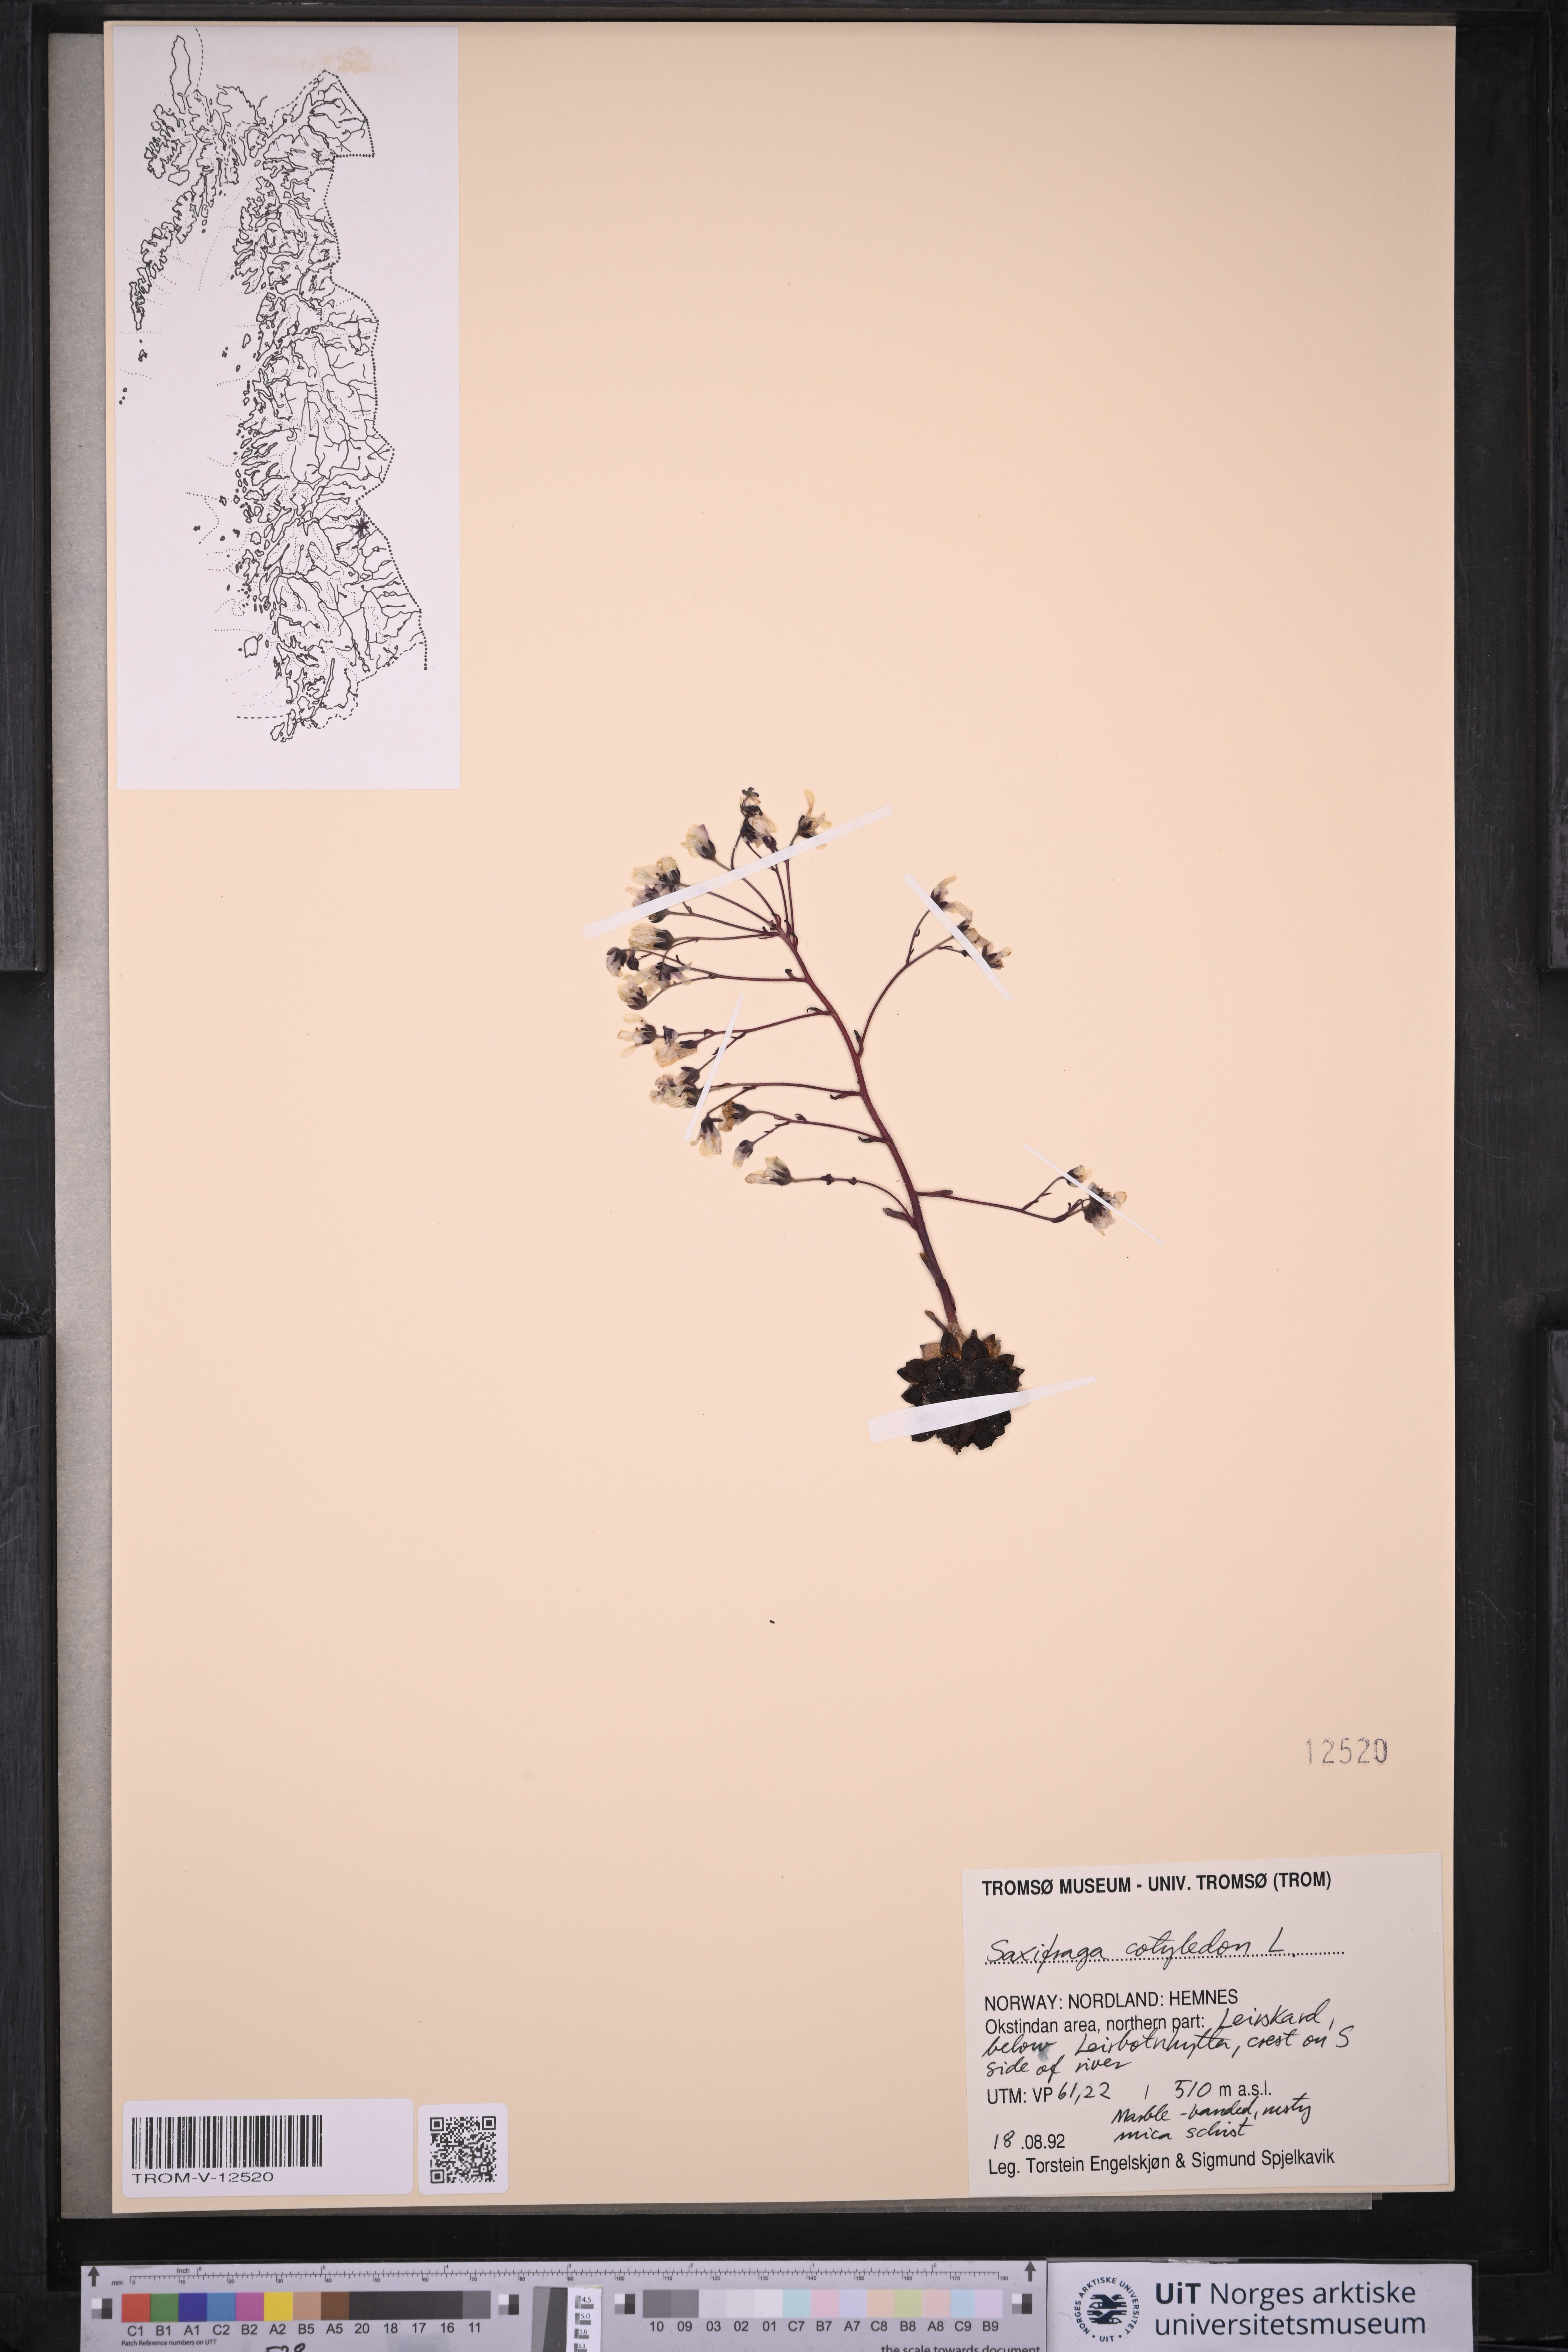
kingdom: Plantae
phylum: Tracheophyta
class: Magnoliopsida
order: Saxifragales
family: Saxifragaceae
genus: Saxifraga
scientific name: Saxifraga cotyledon
